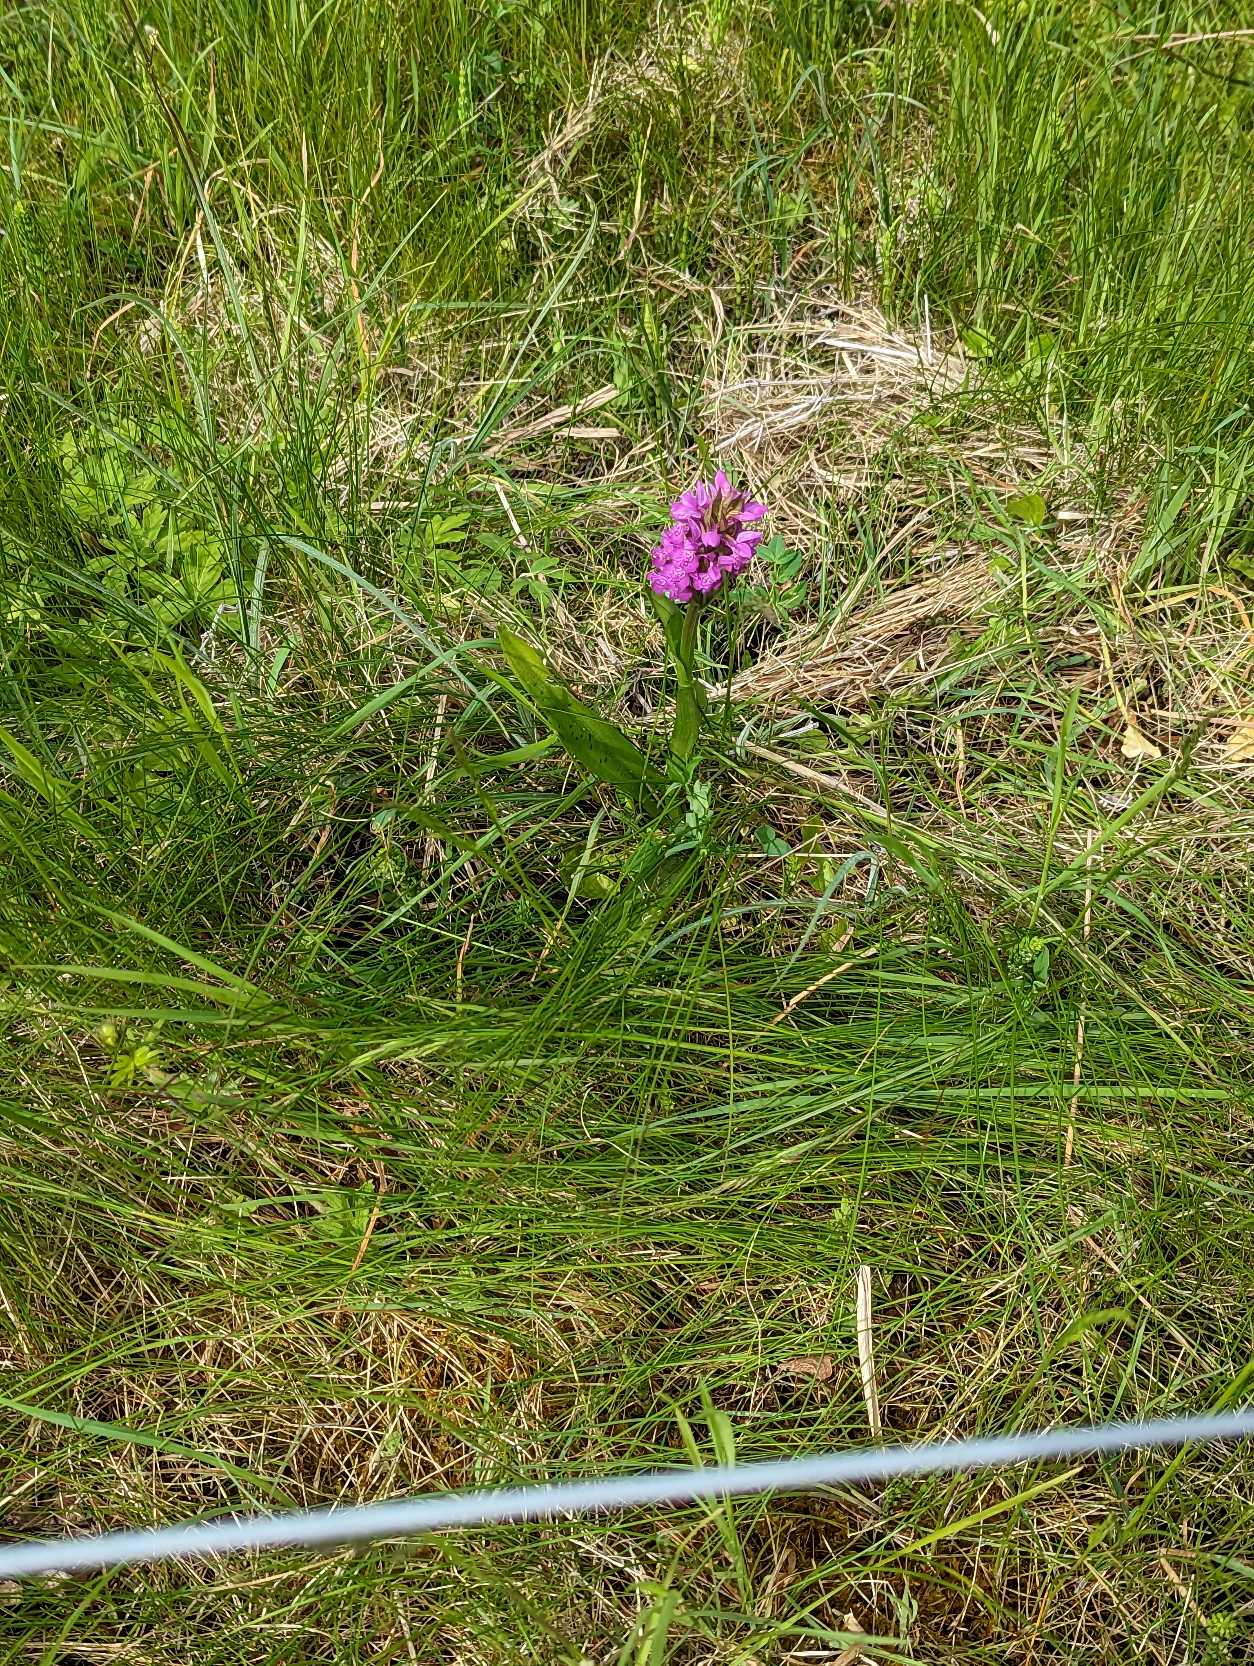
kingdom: Plantae
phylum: Tracheophyta
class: Liliopsida
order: Asparagales
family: Orchidaceae
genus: Dactylorhiza
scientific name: Dactylorhiza majalis
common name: Maj-gøgeurt
